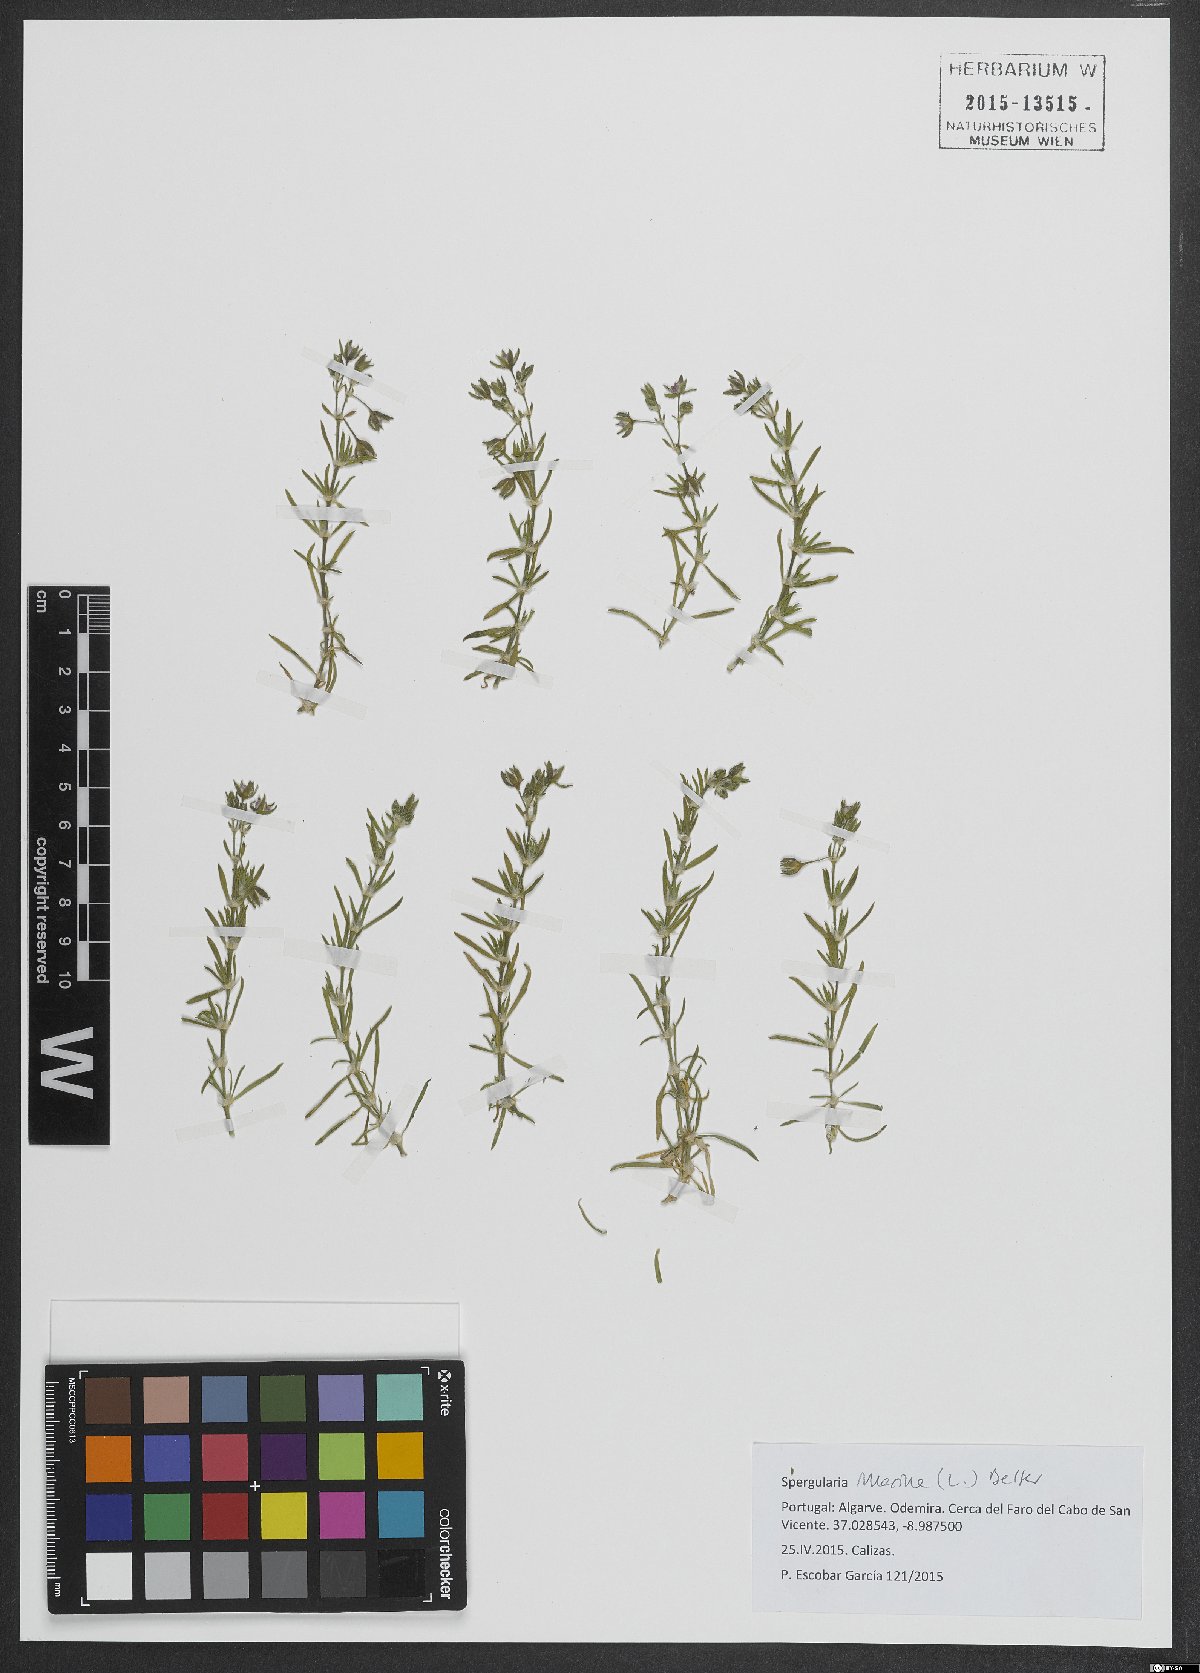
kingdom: Plantae
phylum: Tracheophyta
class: Magnoliopsida
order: Caryophyllales
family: Caryophyllaceae
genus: Spergularia
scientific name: Spergularia marina
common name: Lesser sea-spurrey
